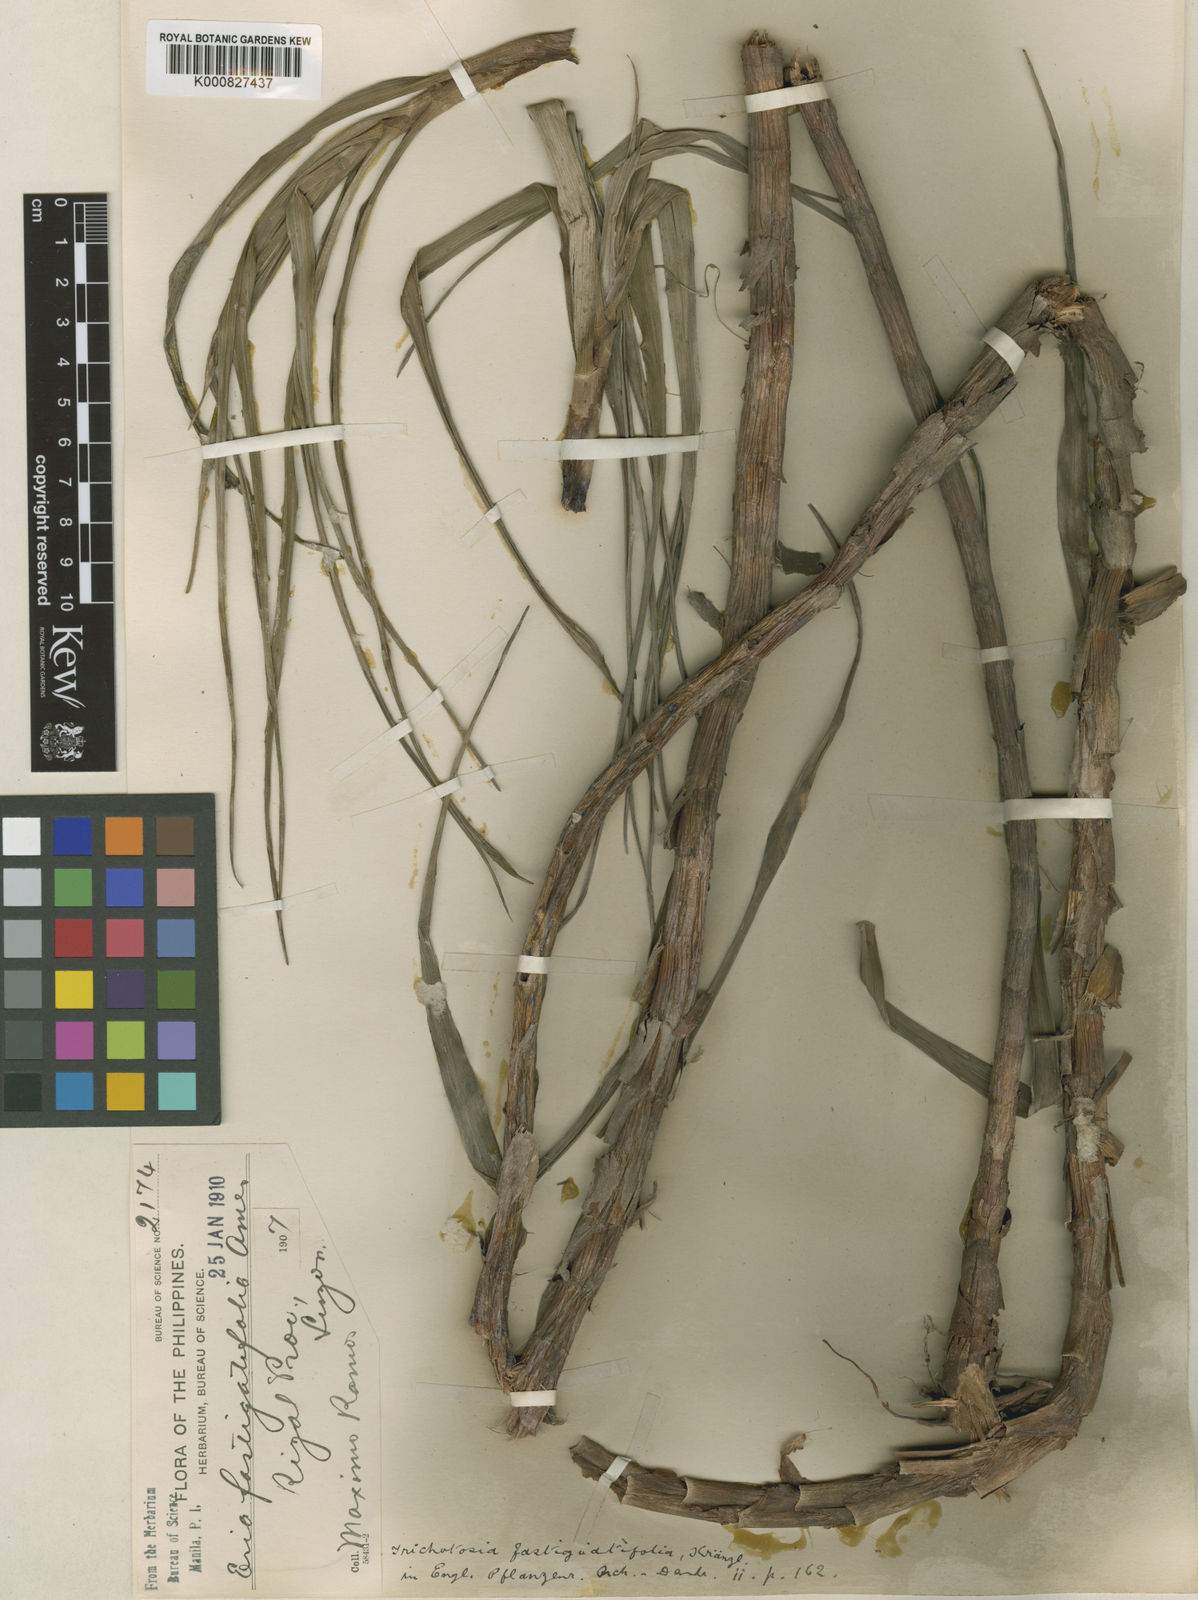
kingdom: Plantae
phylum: Tracheophyta
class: Liliopsida
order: Asparagales
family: Orchidaceae
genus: Cylindrolobus
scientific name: Cylindrolobus fastigiatifolius
